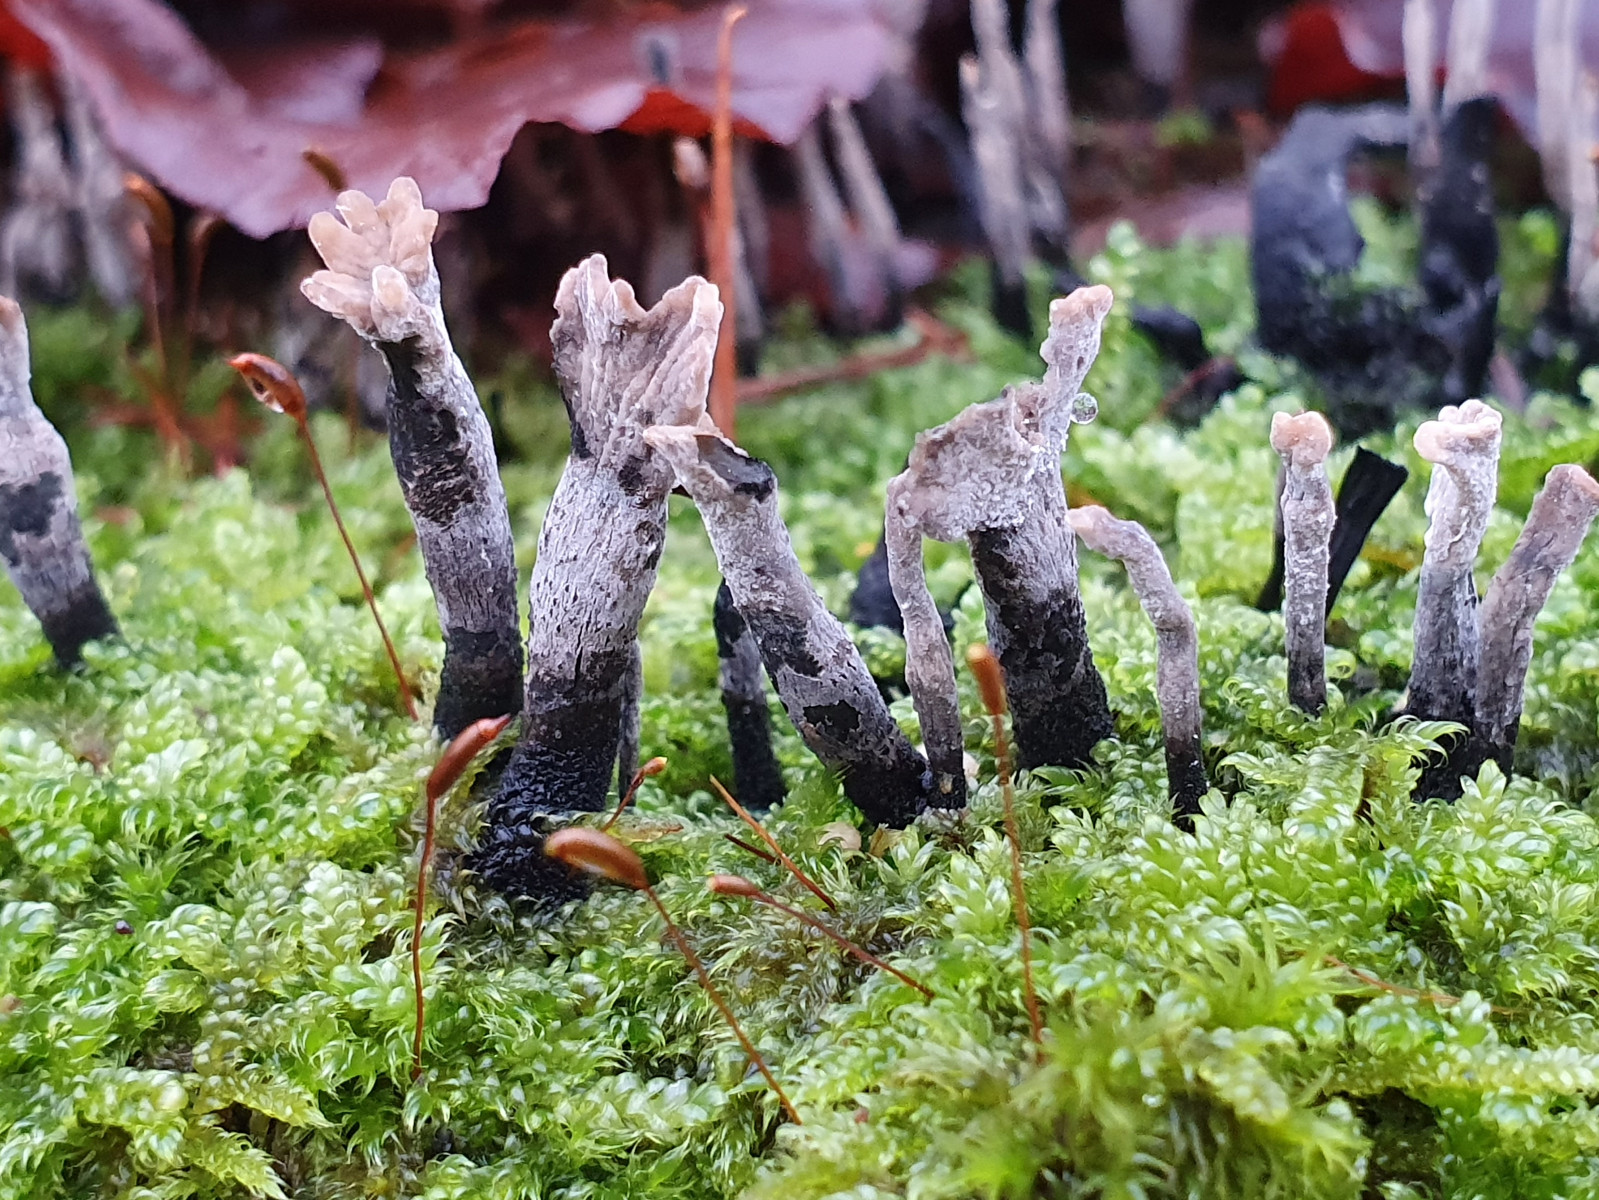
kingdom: Fungi
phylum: Ascomycota
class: Sordariomycetes
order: Xylariales
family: Xylariaceae
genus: Xylaria
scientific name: Xylaria hypoxylon
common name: grenet stødsvamp
